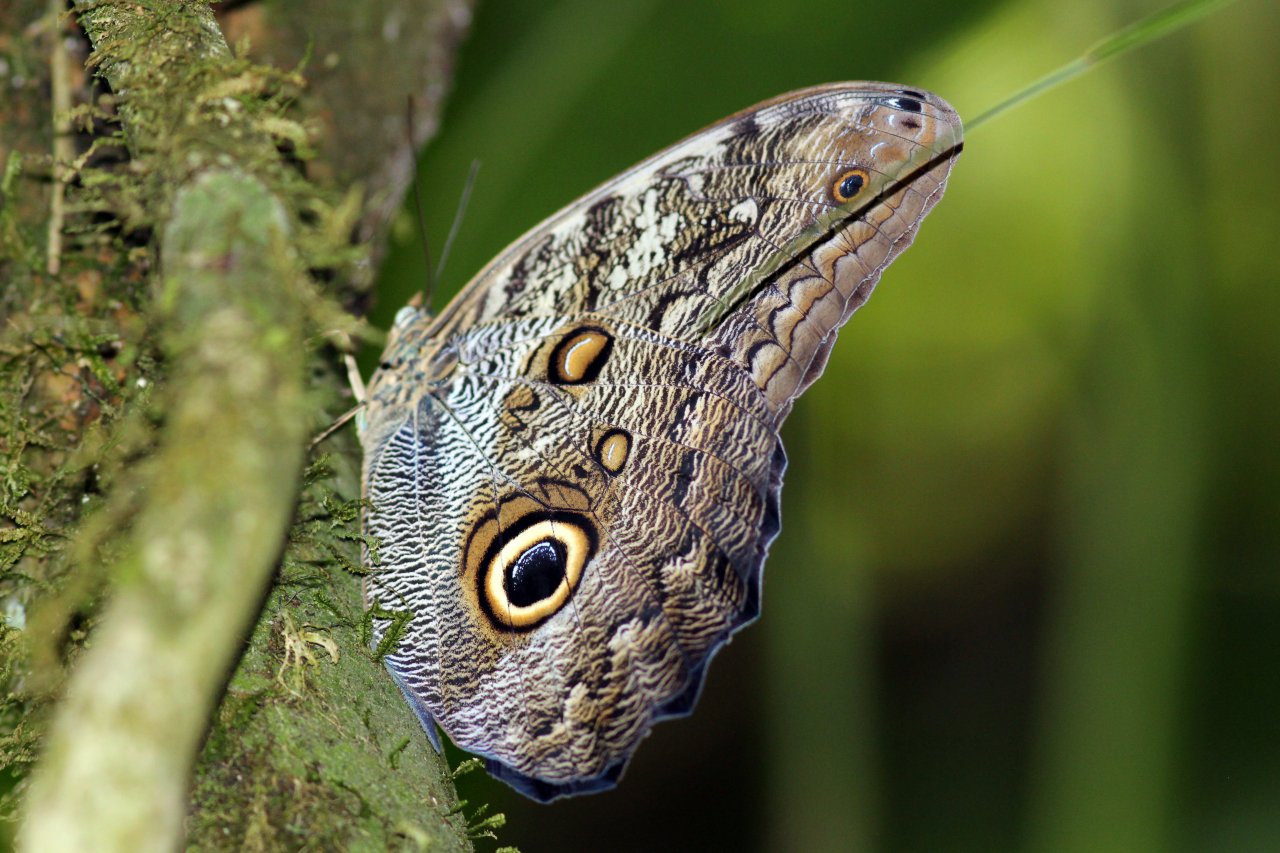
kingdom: Animalia
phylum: Arthropoda
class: Insecta
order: Lepidoptera
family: Nymphalidae
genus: Caligo
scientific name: Caligo brasiliensis
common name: Dark Owl-Butterfly
